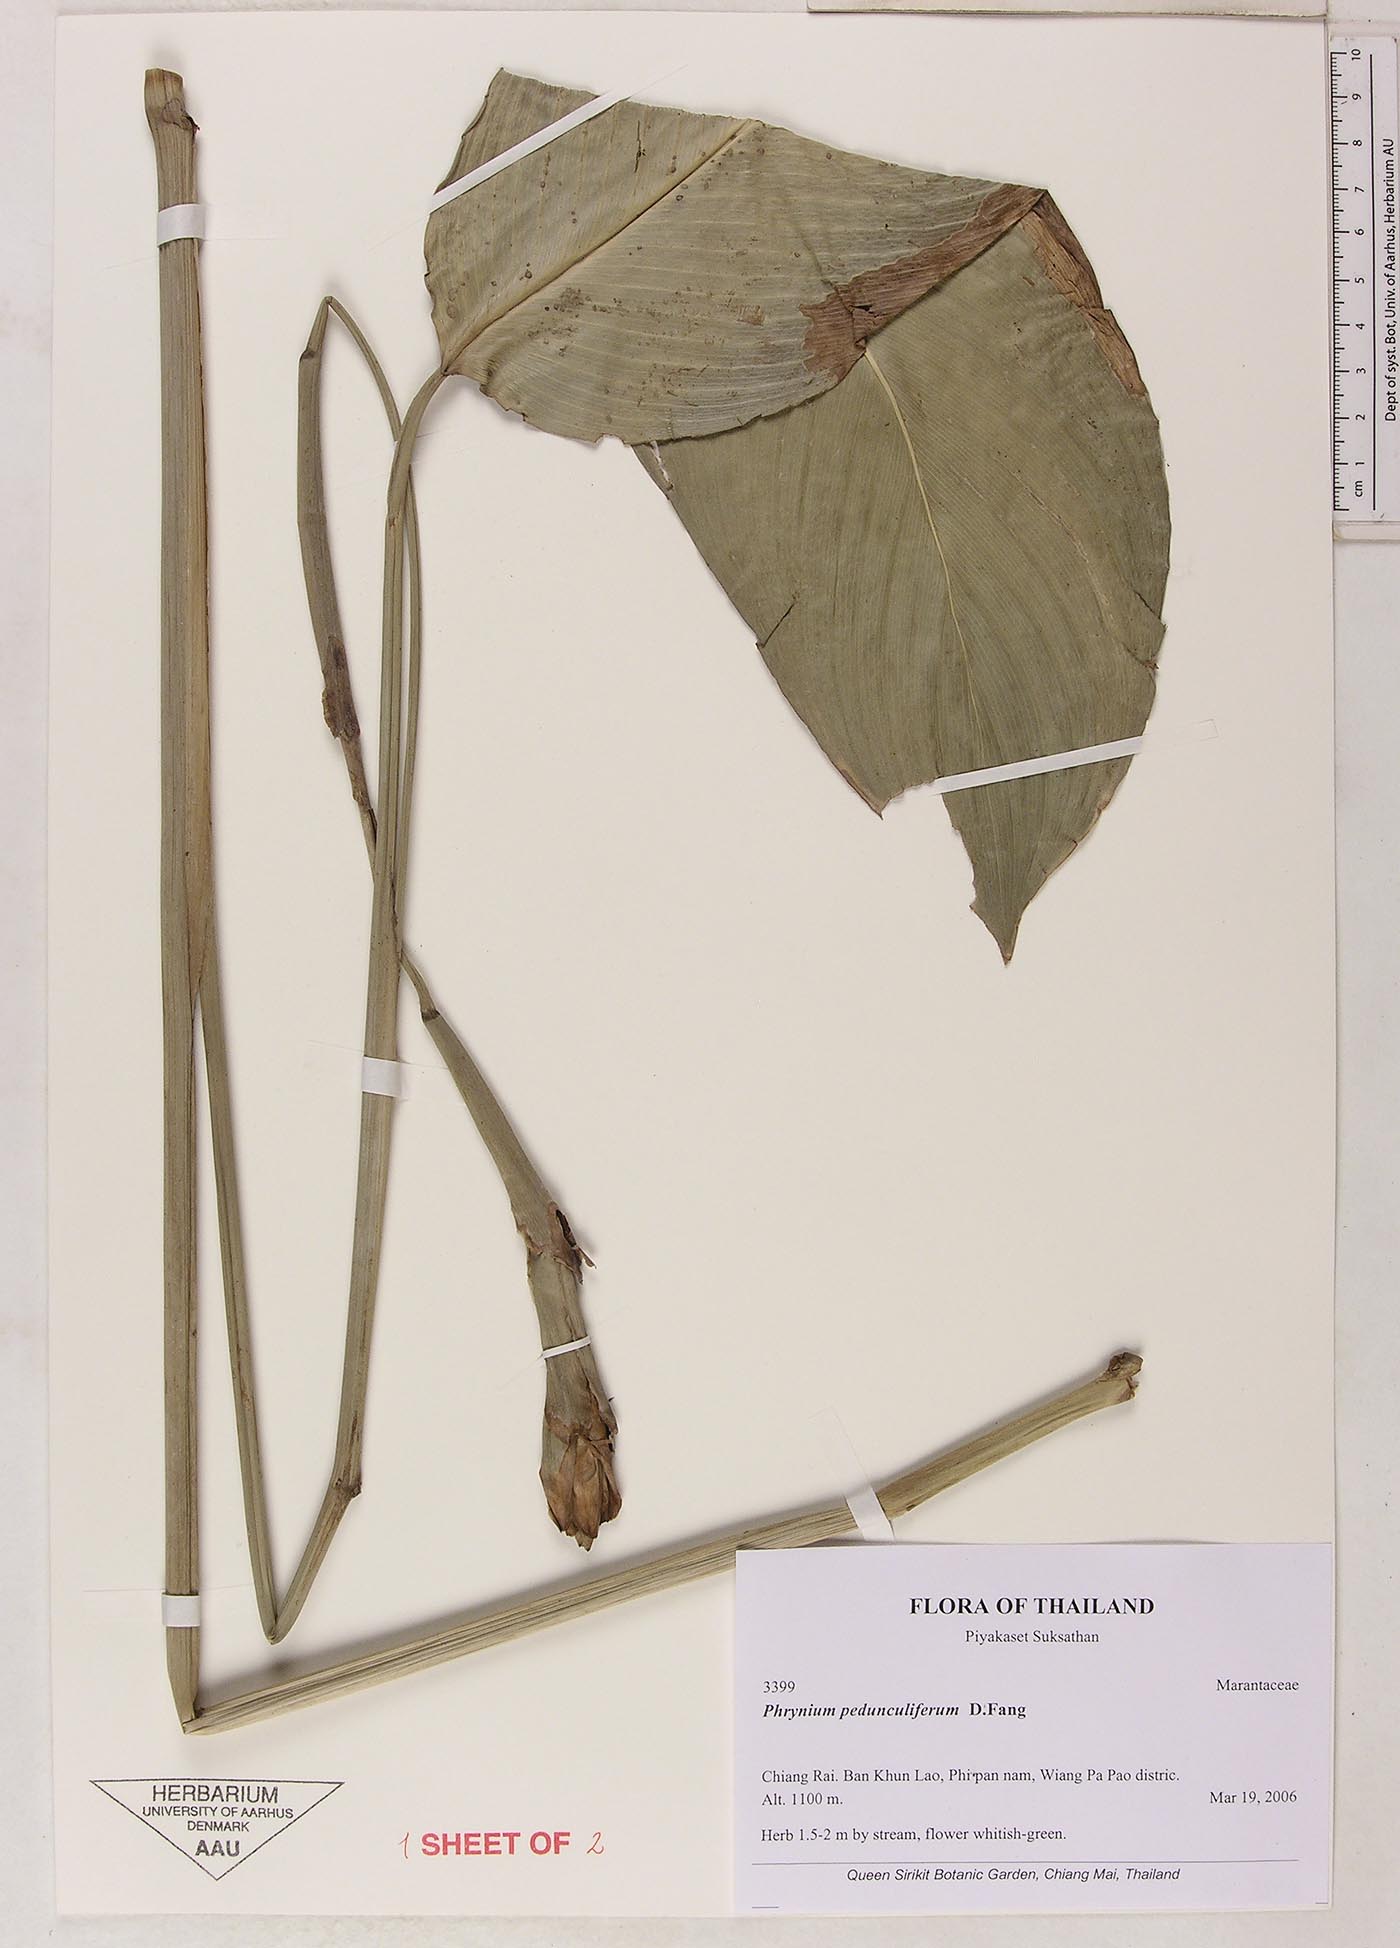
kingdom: Plantae
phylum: Tracheophyta
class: Liliopsida
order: Zingiberales
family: Marantaceae
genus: Phrynium
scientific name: Phrynium pedunculiferum
